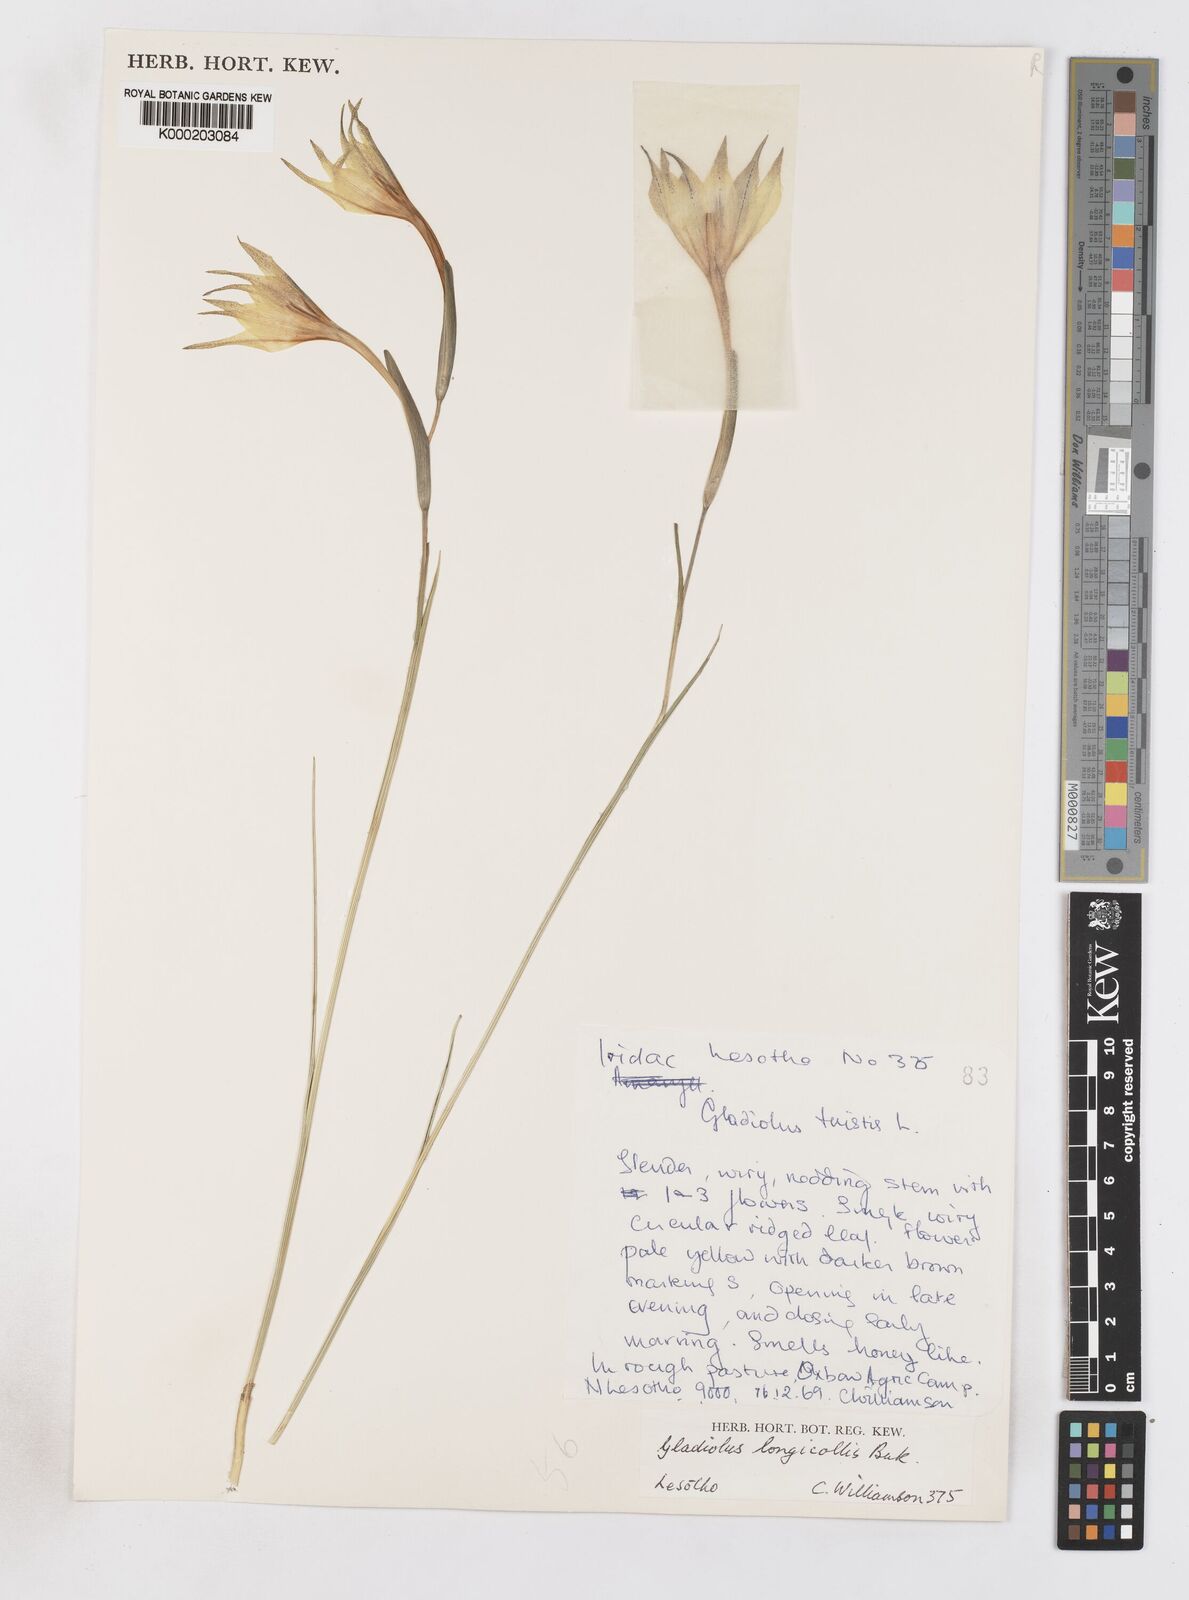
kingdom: Plantae
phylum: Tracheophyta
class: Liliopsida
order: Asparagales
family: Iridaceae
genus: Gladiolus
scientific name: Gladiolus longicollis
